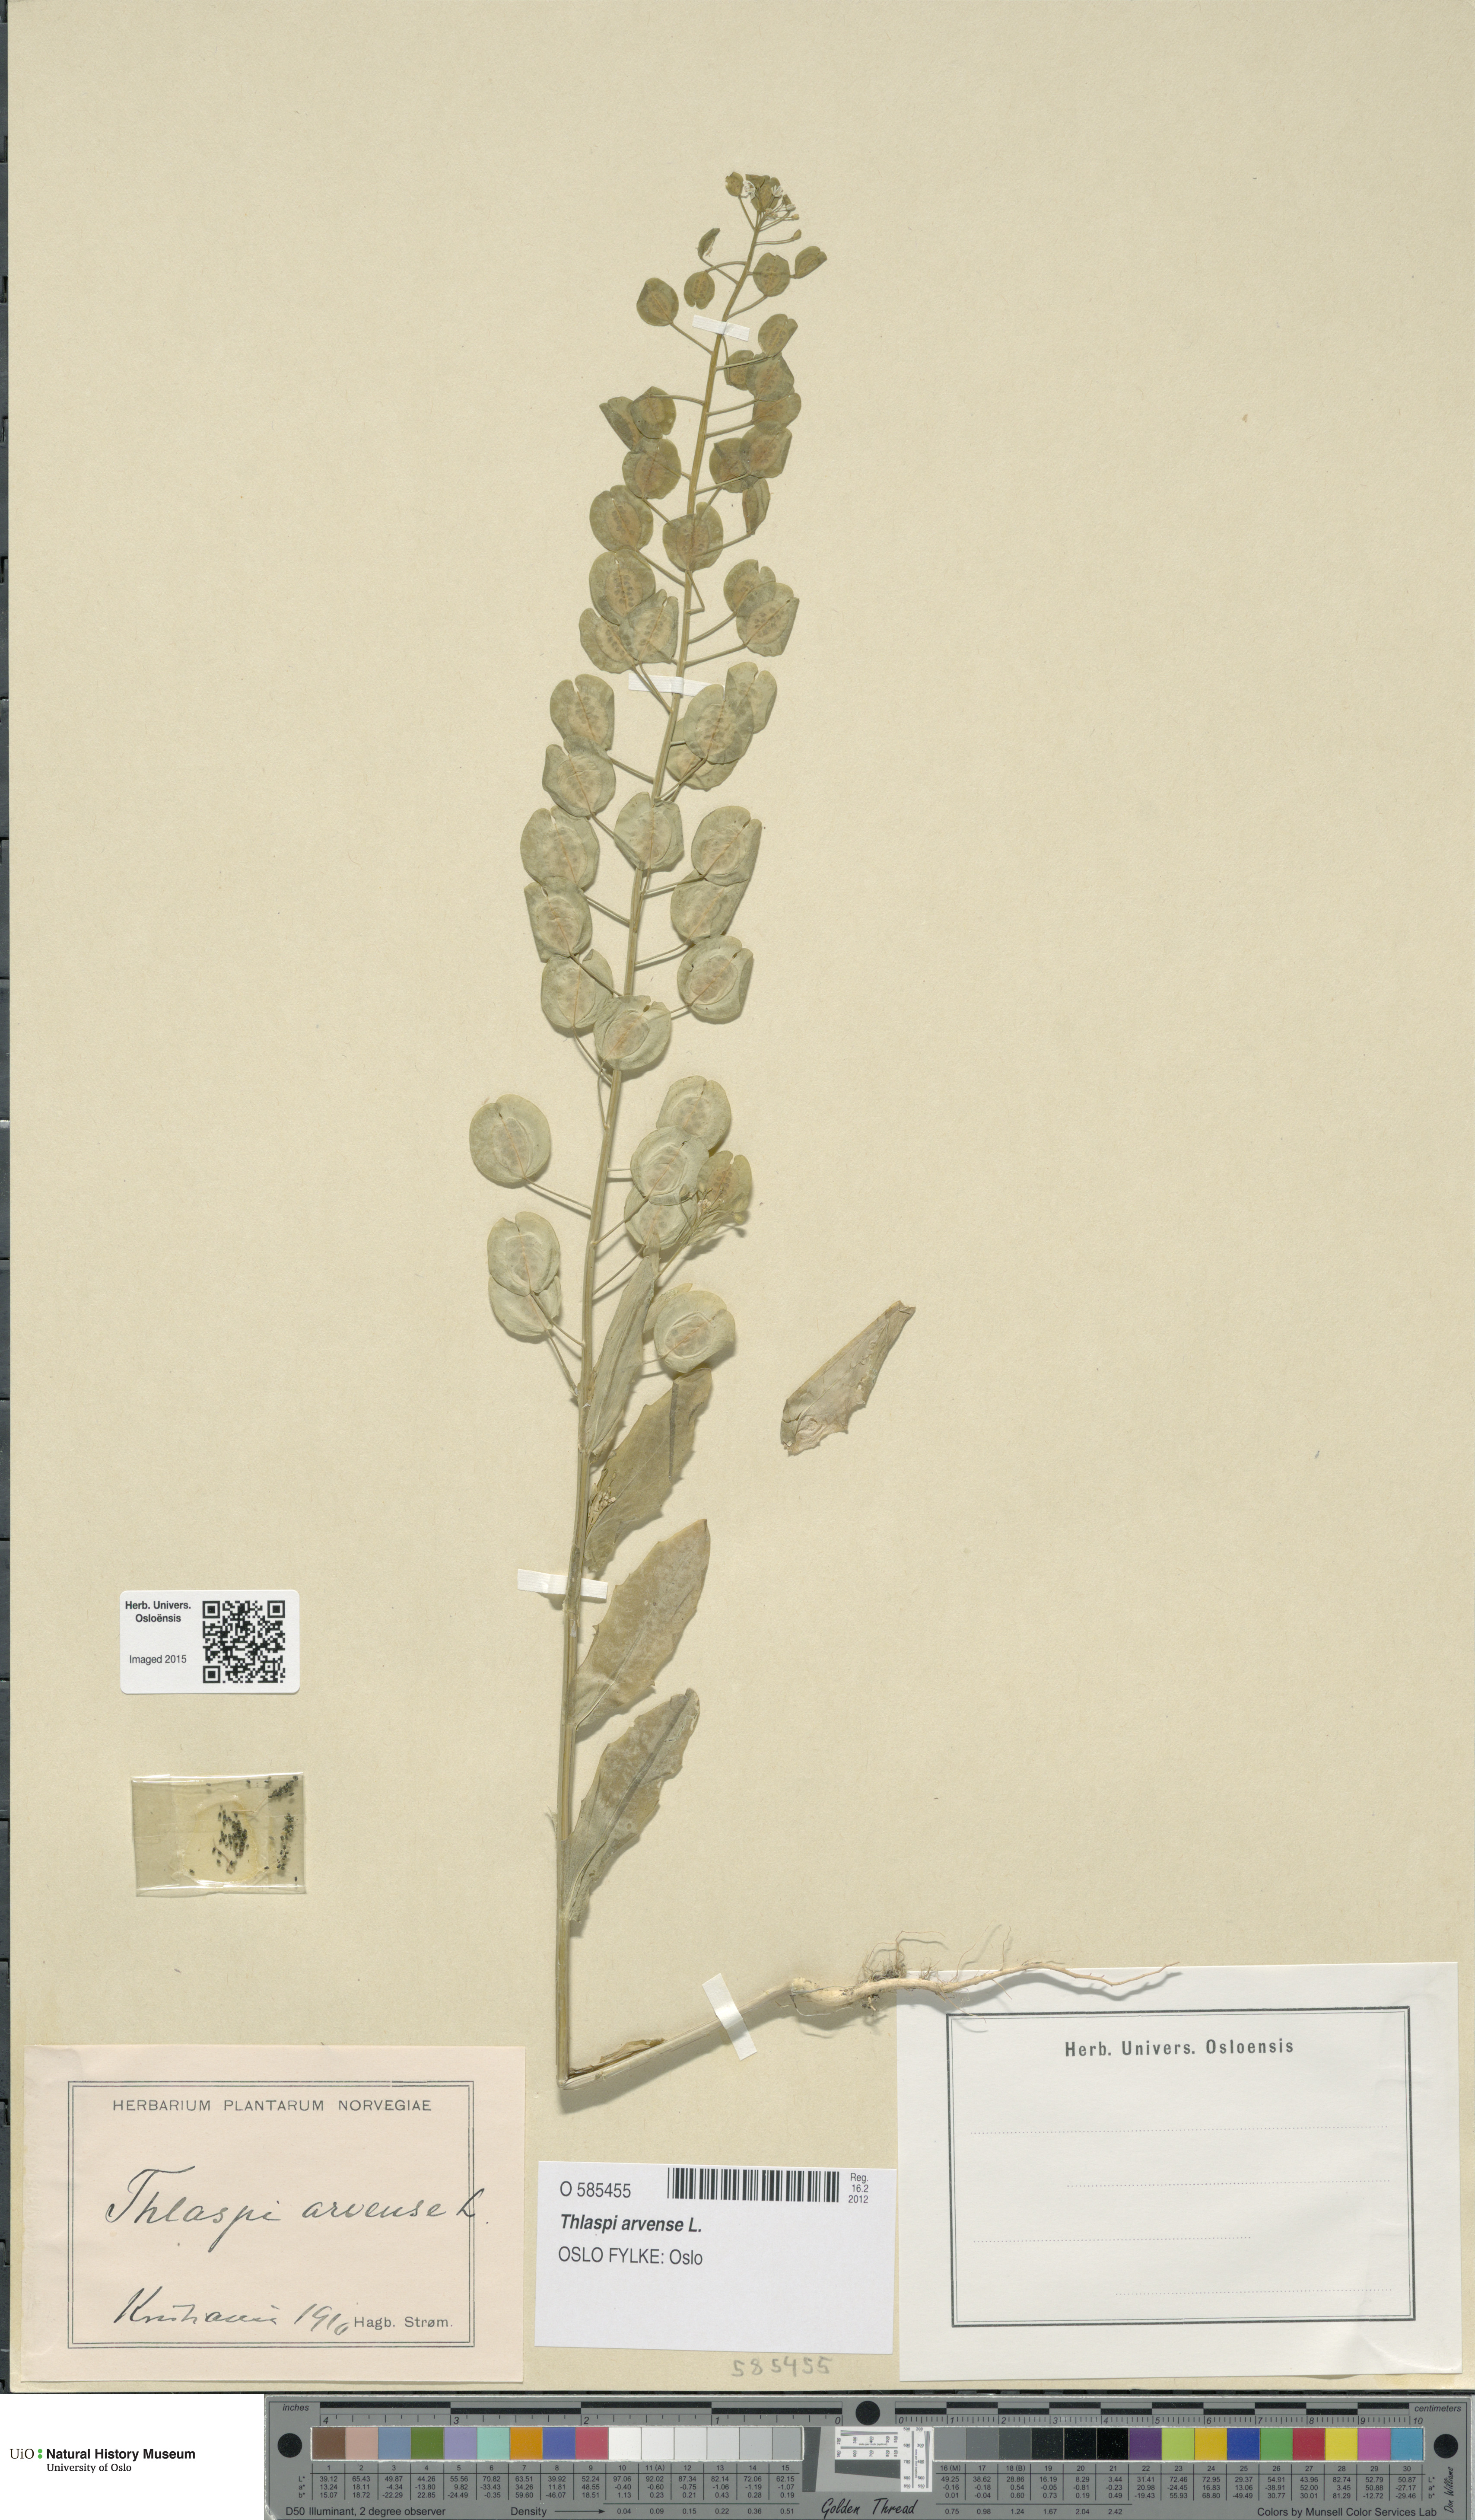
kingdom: Plantae
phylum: Tracheophyta
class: Magnoliopsida
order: Brassicales
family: Brassicaceae
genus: Thlaspi
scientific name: Thlaspi arvense
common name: Field pennycress
